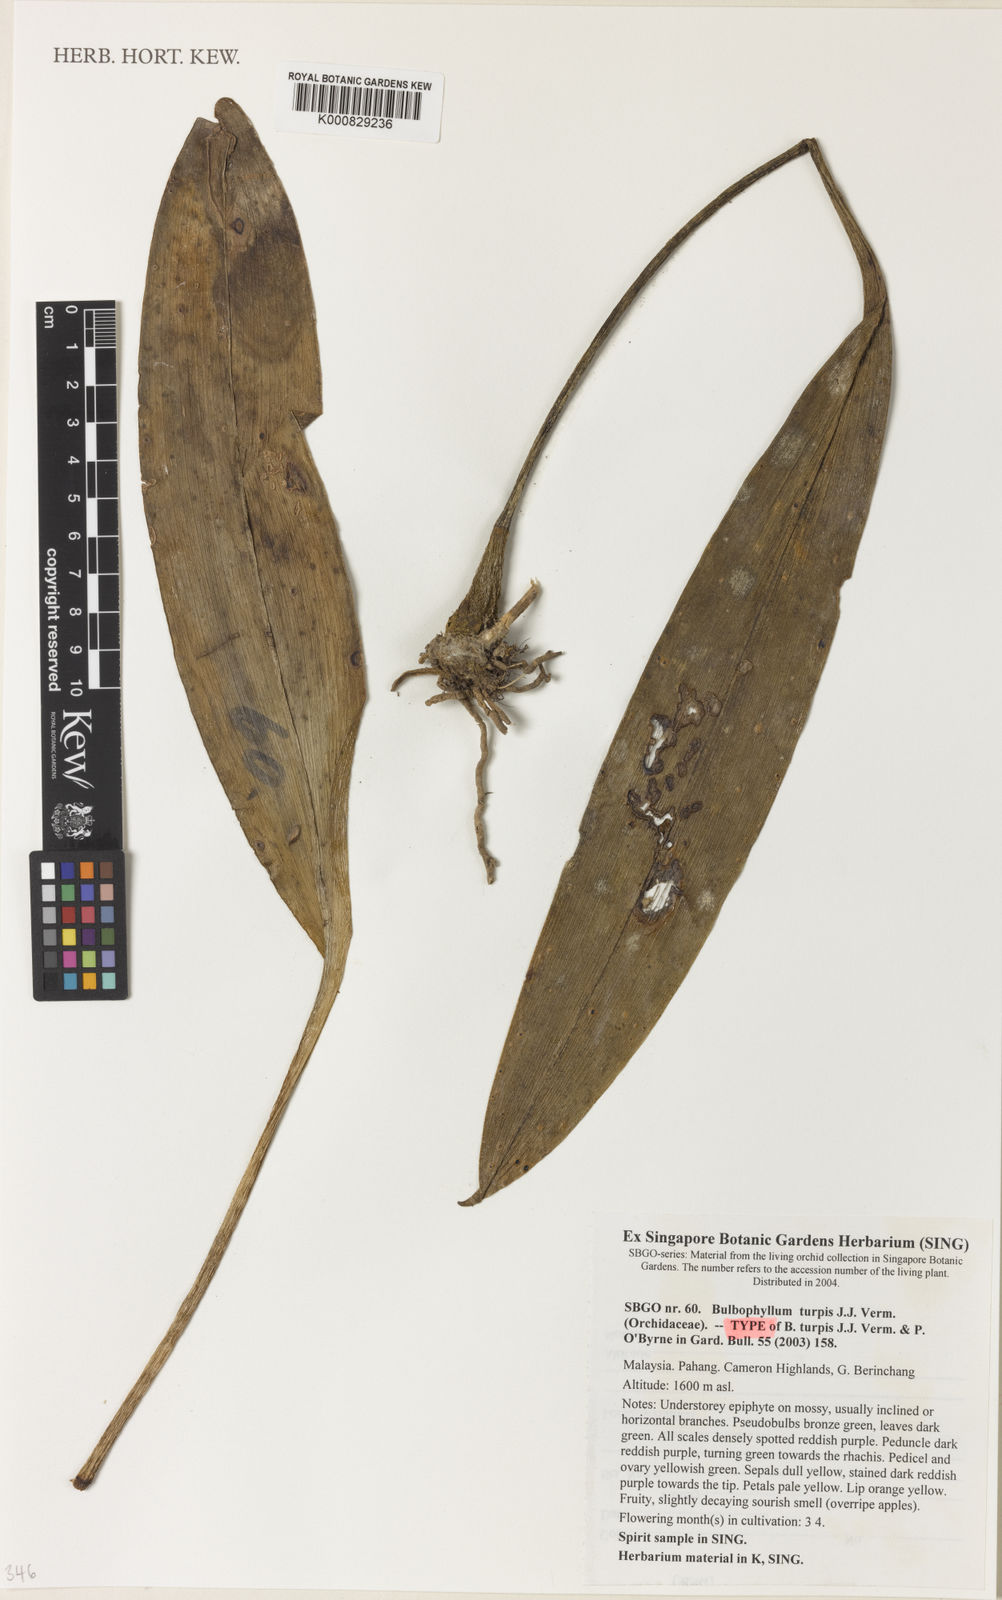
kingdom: Plantae
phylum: Tracheophyta
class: Liliopsida
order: Asparagales
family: Orchidaceae
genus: Bulbophyllum
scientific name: Bulbophyllum
